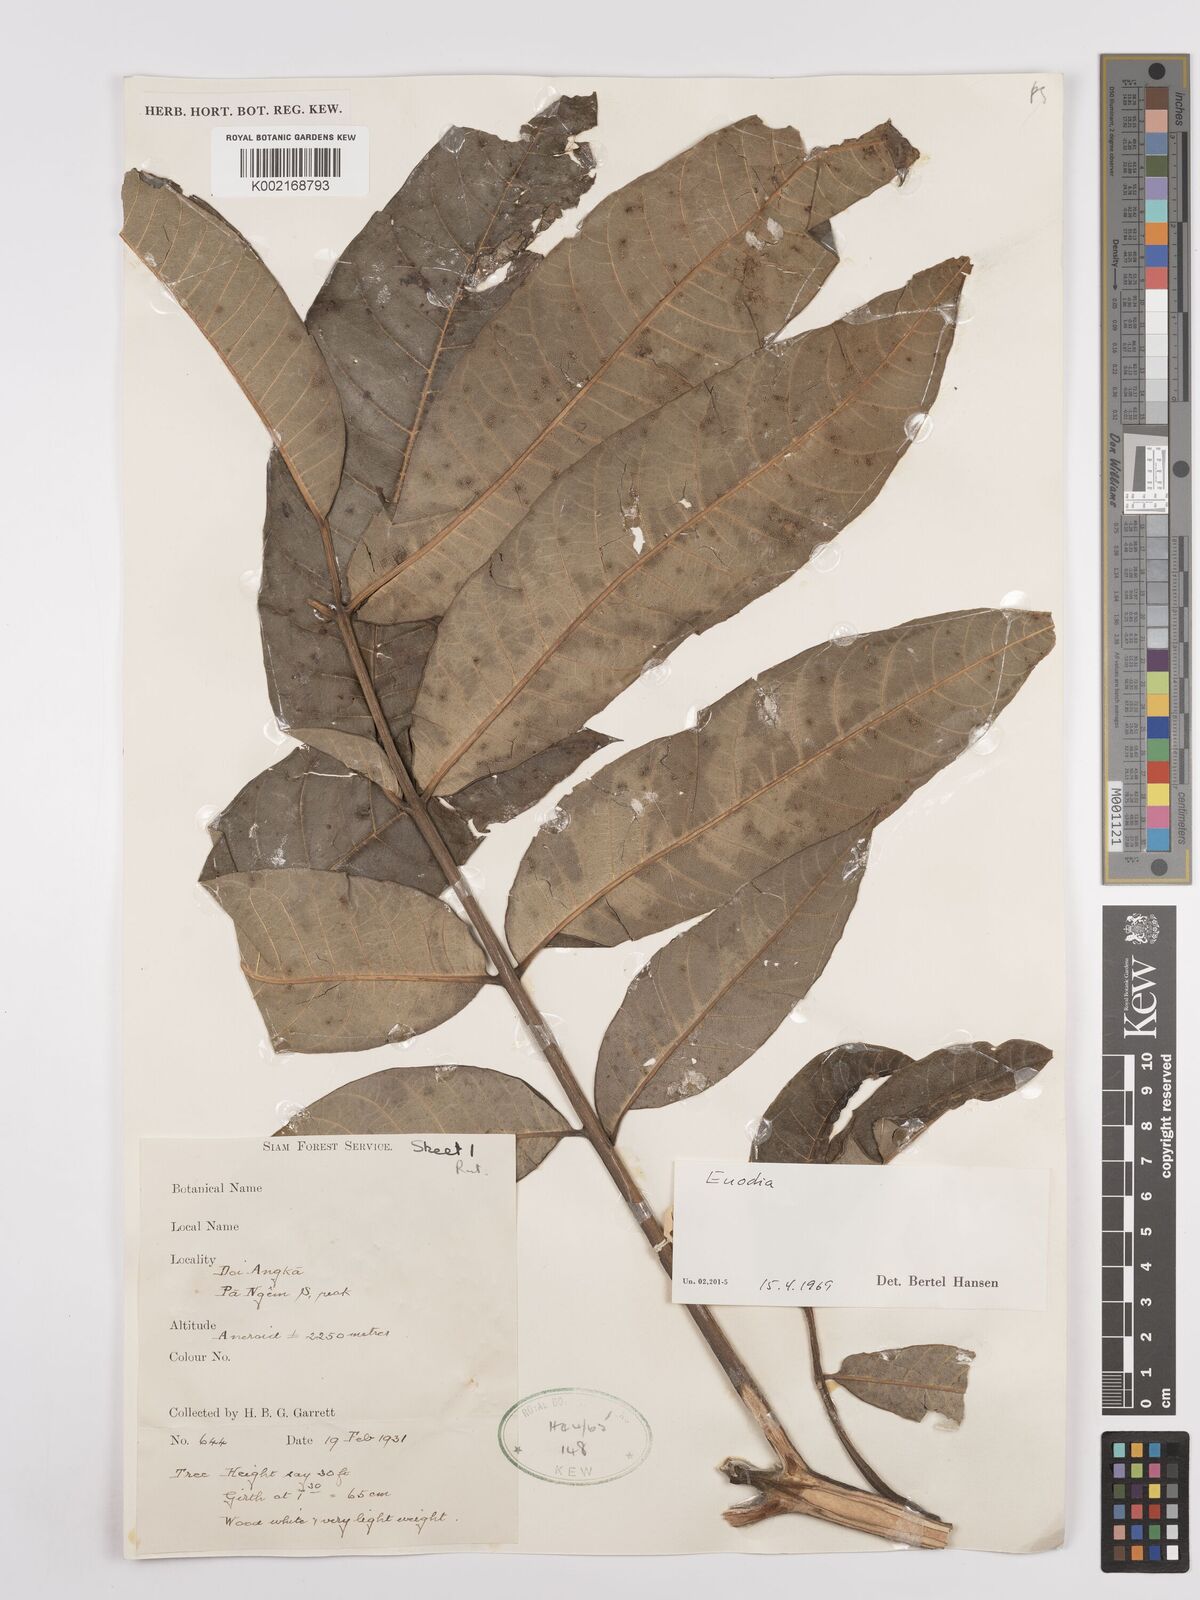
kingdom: Plantae
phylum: Tracheophyta
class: Magnoliopsida
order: Sapindales
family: Rutaceae
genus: Euodia
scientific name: Euodia
